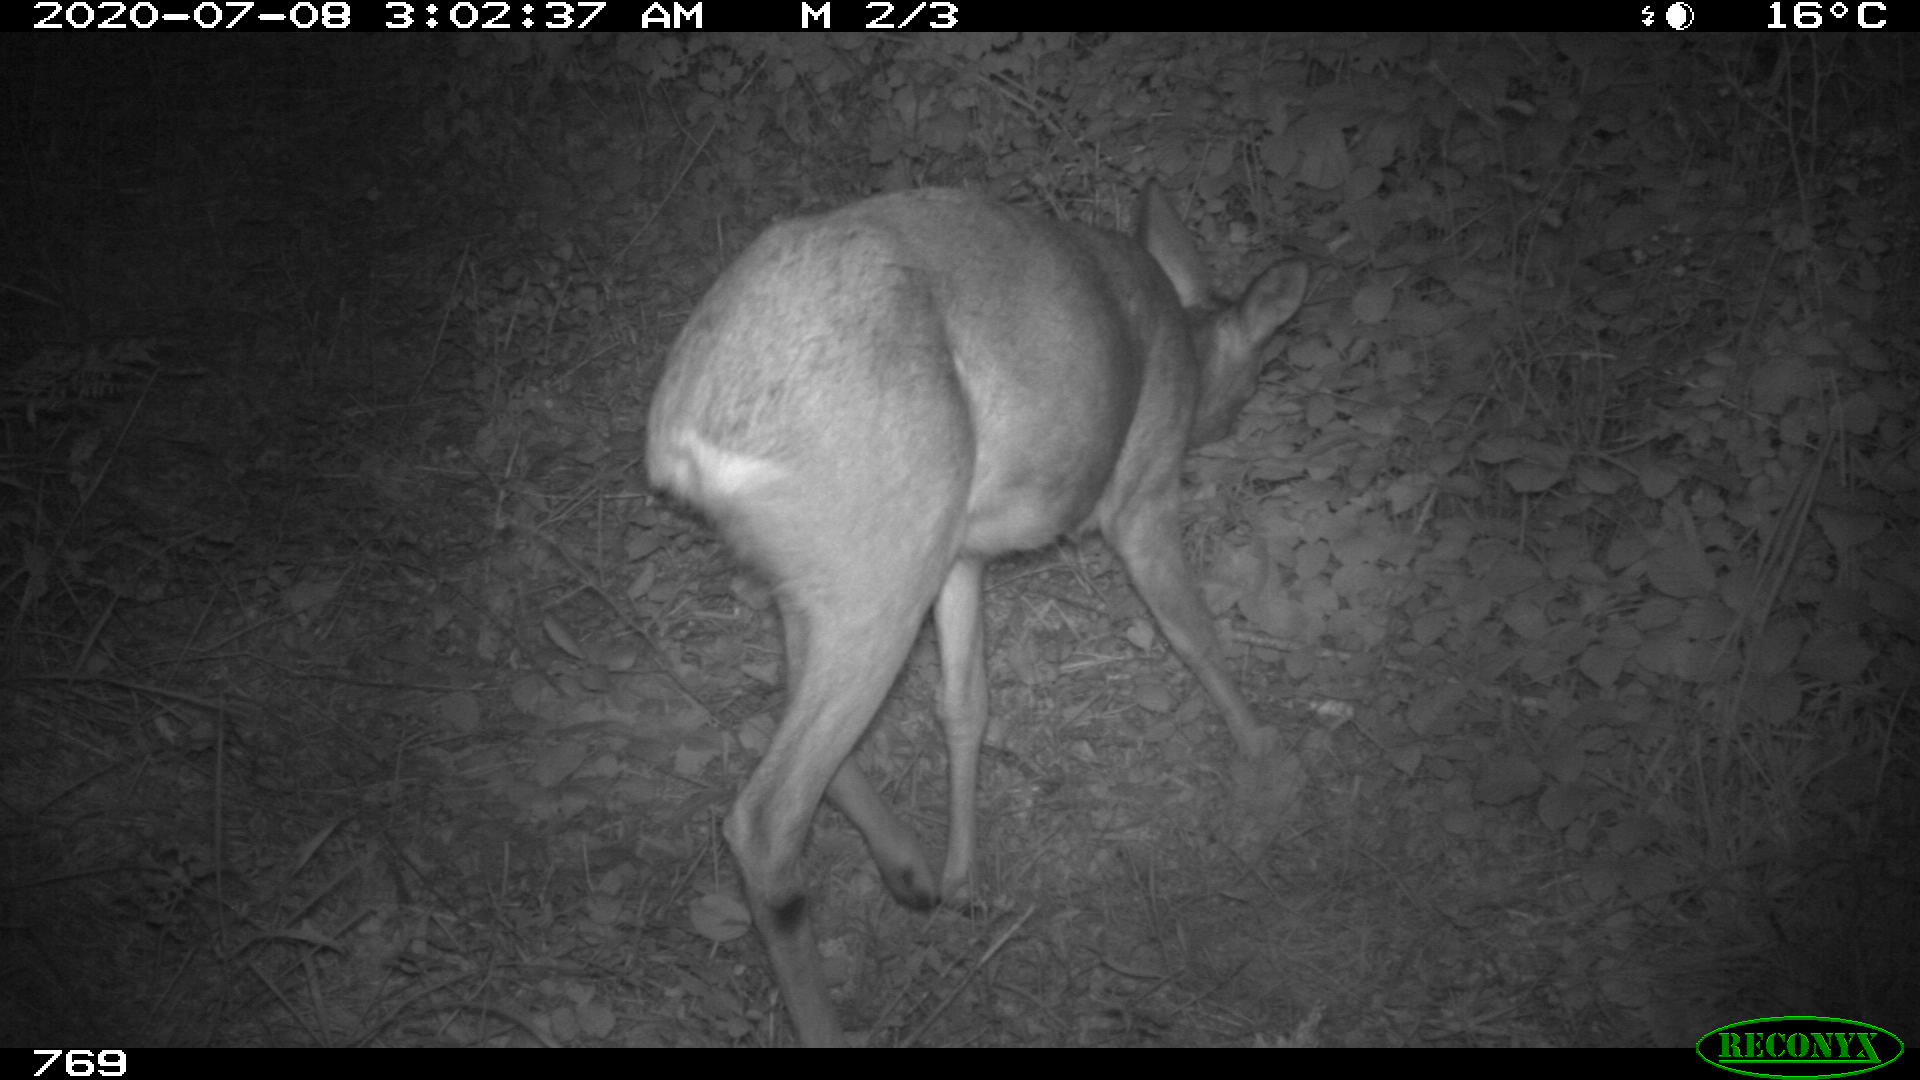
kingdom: Animalia
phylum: Chordata
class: Mammalia
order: Artiodactyla
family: Cervidae
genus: Capreolus
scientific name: Capreolus capreolus
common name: Western roe deer
